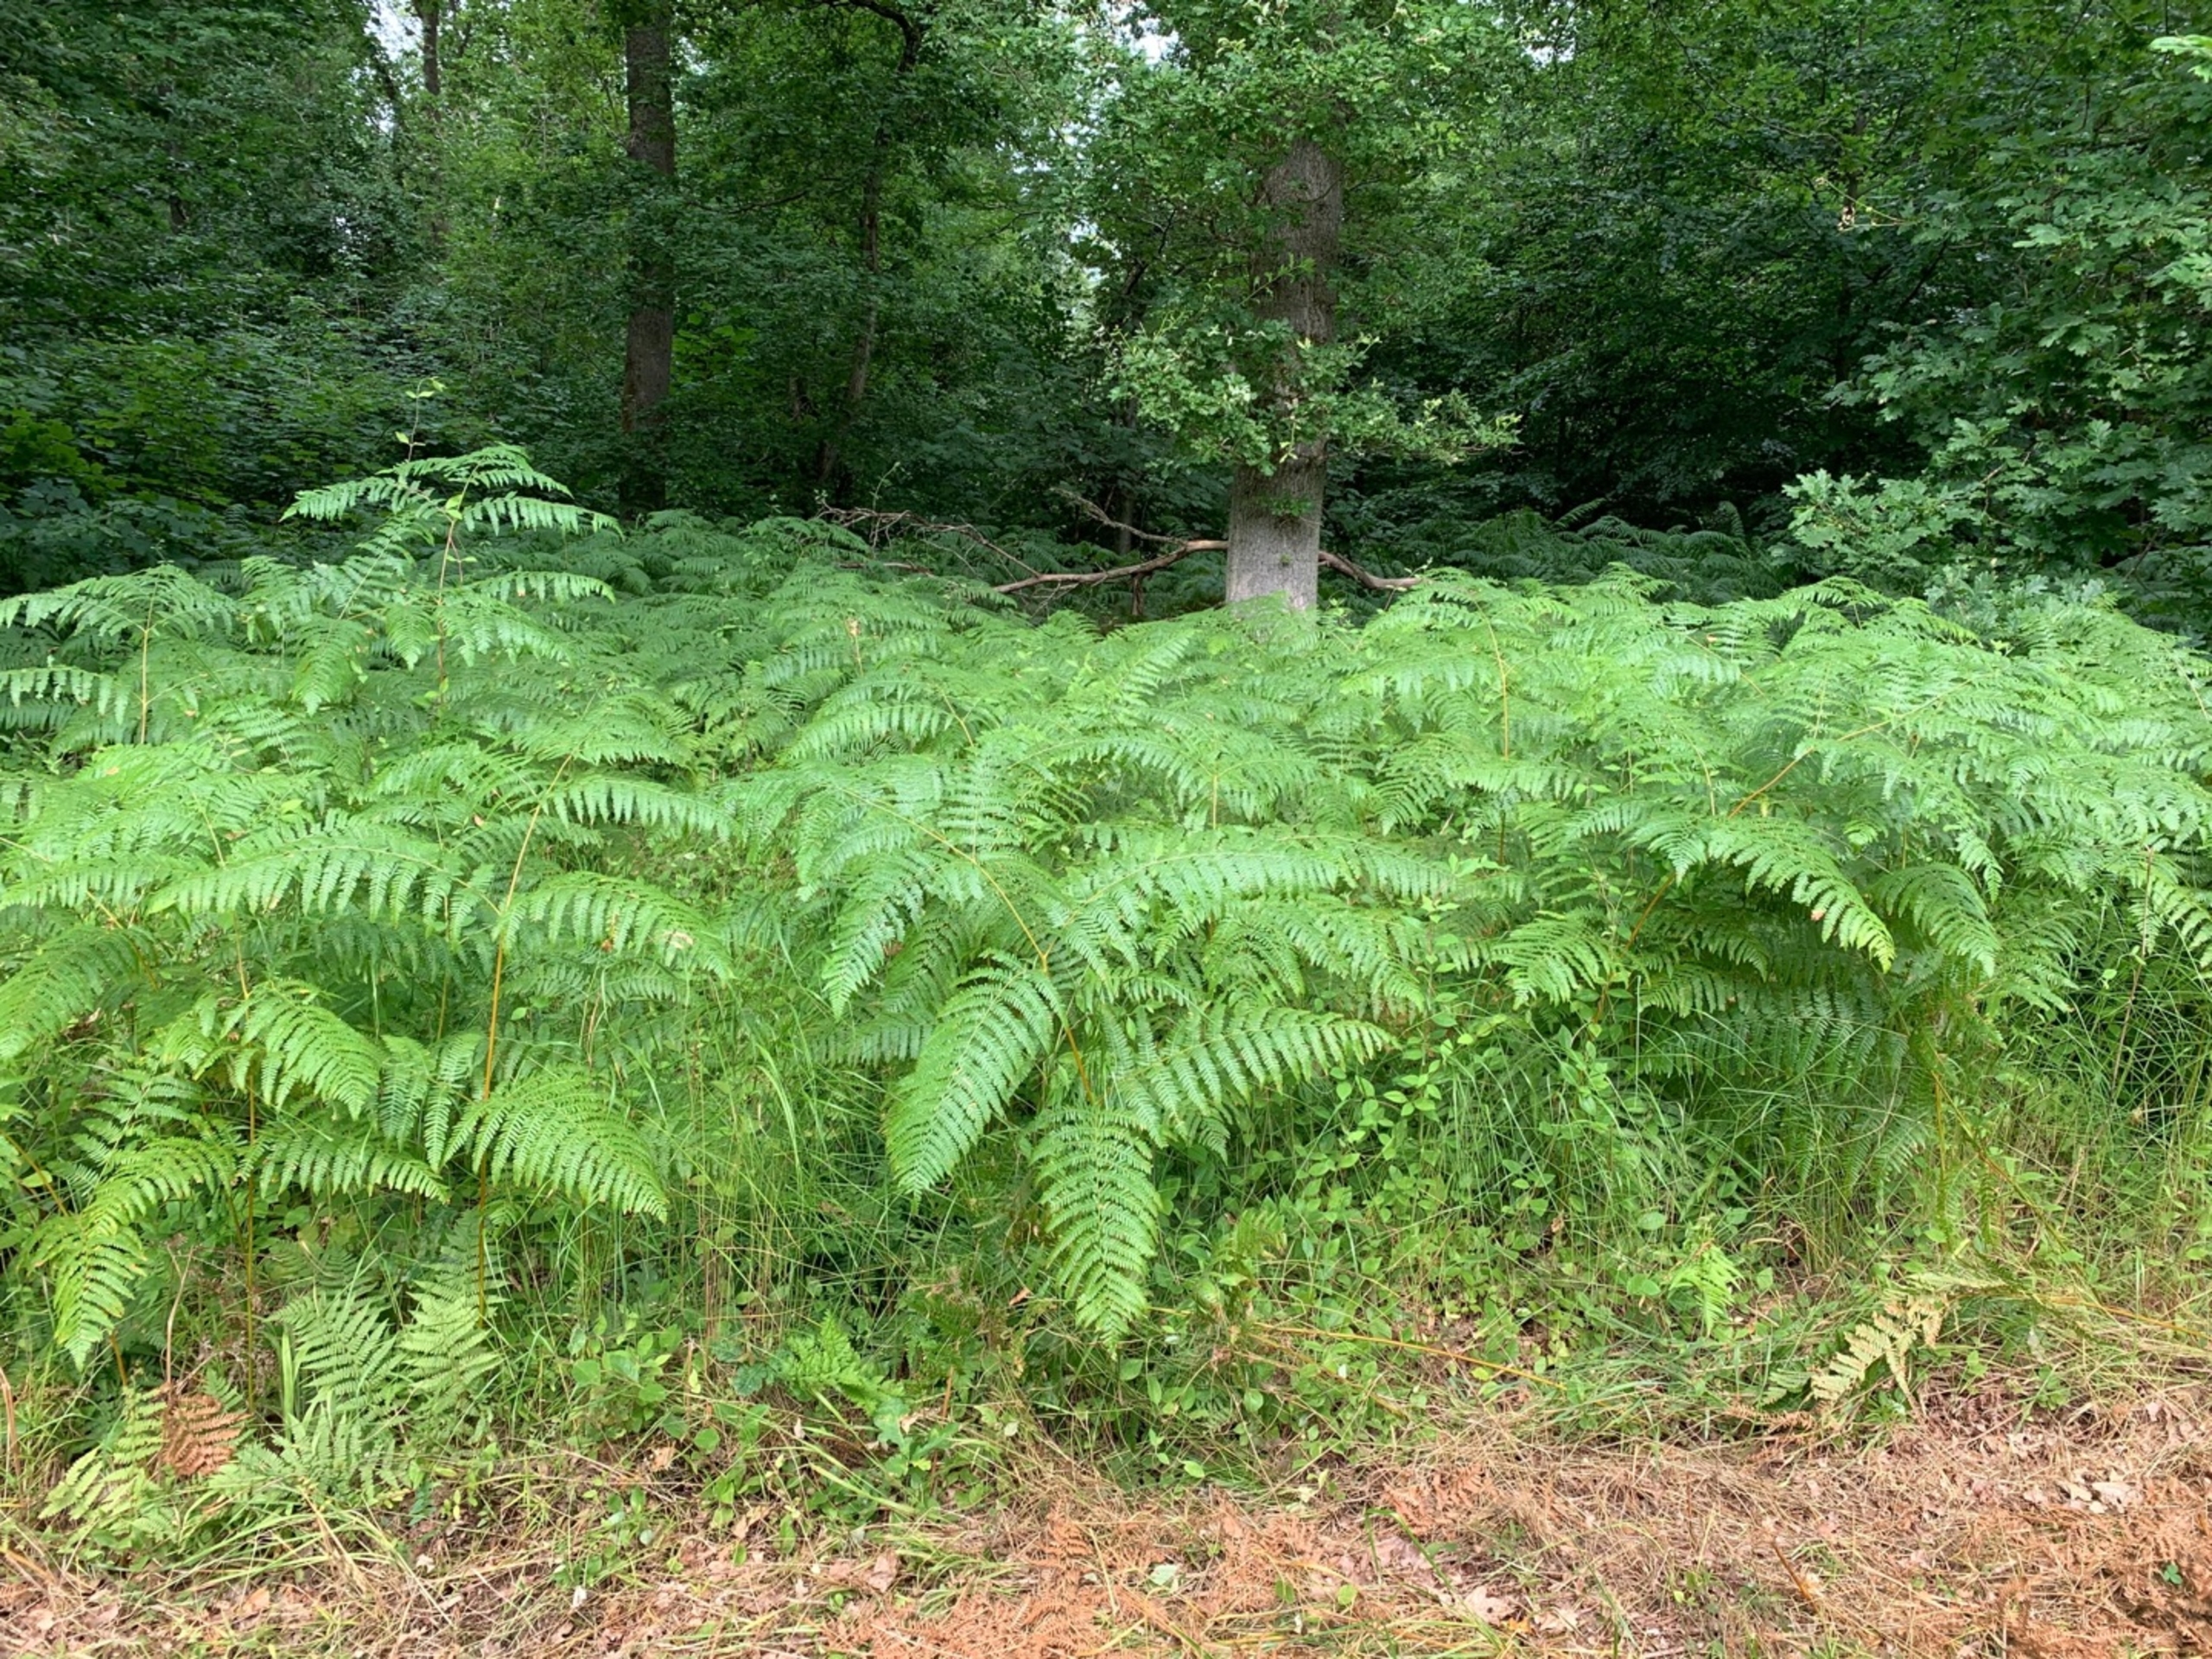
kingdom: Plantae
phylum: Tracheophyta
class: Polypodiopsida
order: Polypodiales
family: Dennstaedtiaceae
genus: Pteridium
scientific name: Pteridium aquilinum
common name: Ørnebregne
